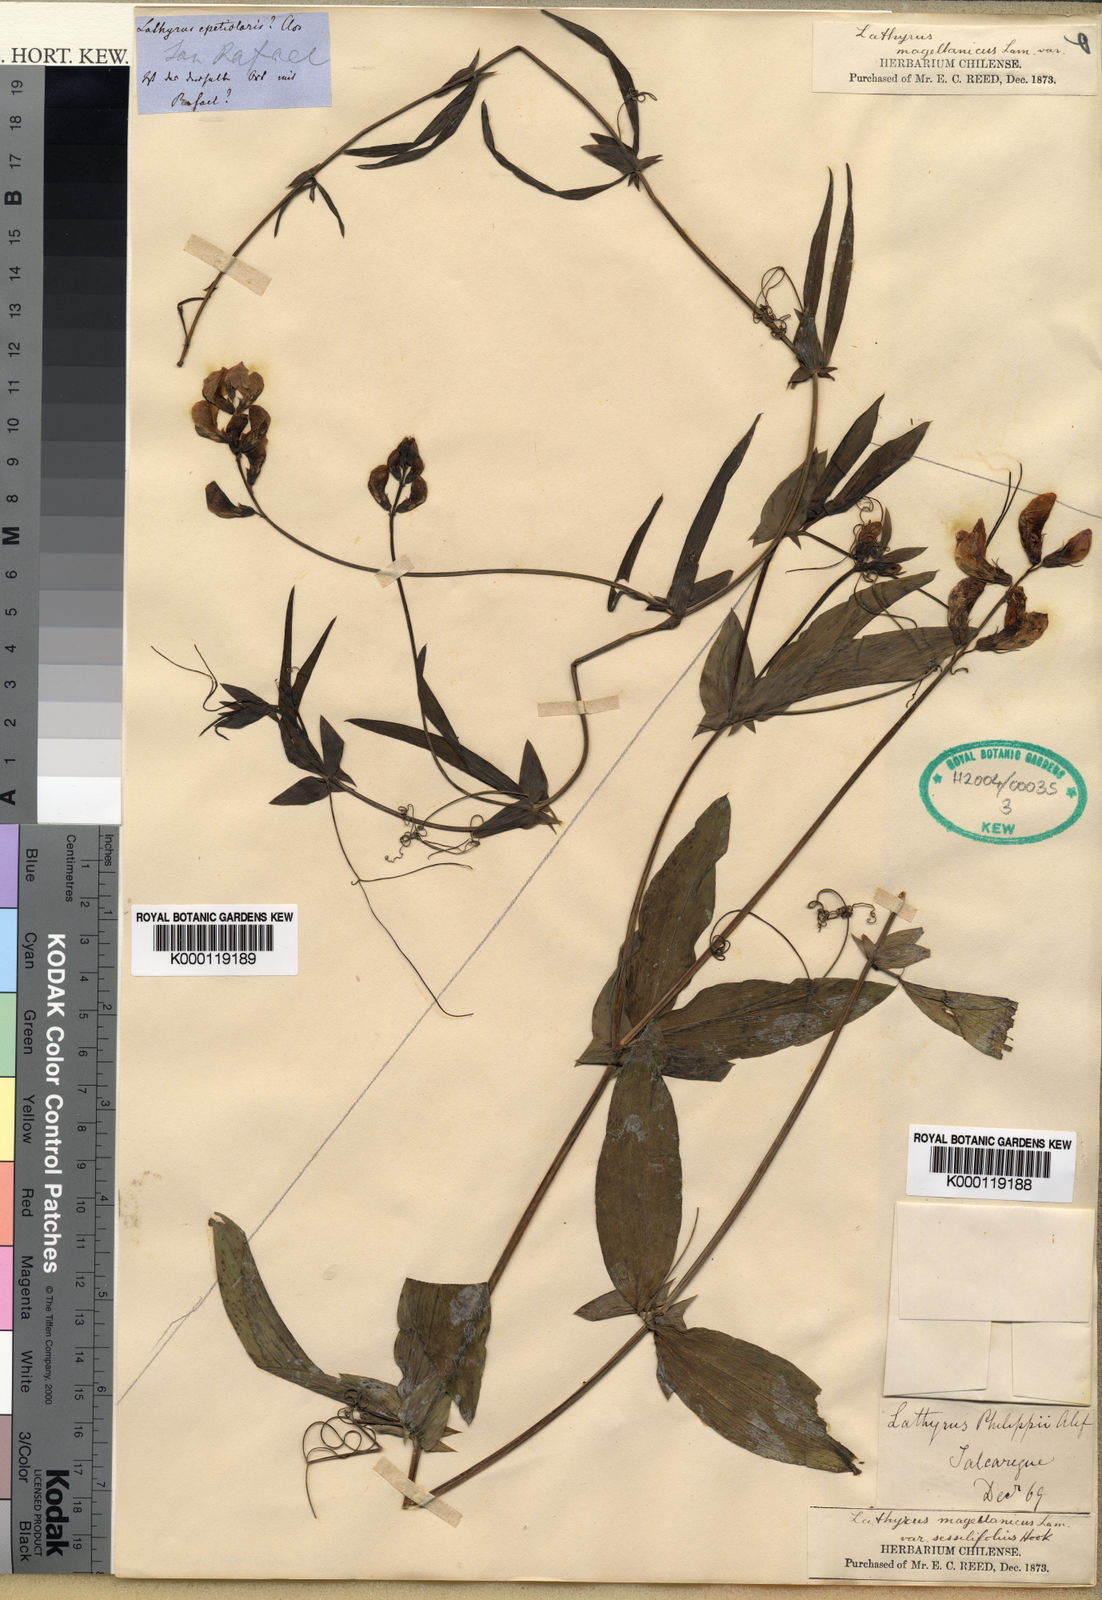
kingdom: Plantae
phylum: Tracheophyta
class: Magnoliopsida
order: Fabales
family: Fabaceae
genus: Lathyrus
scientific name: Lathyrus magellanicus
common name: Lord anson's pea
